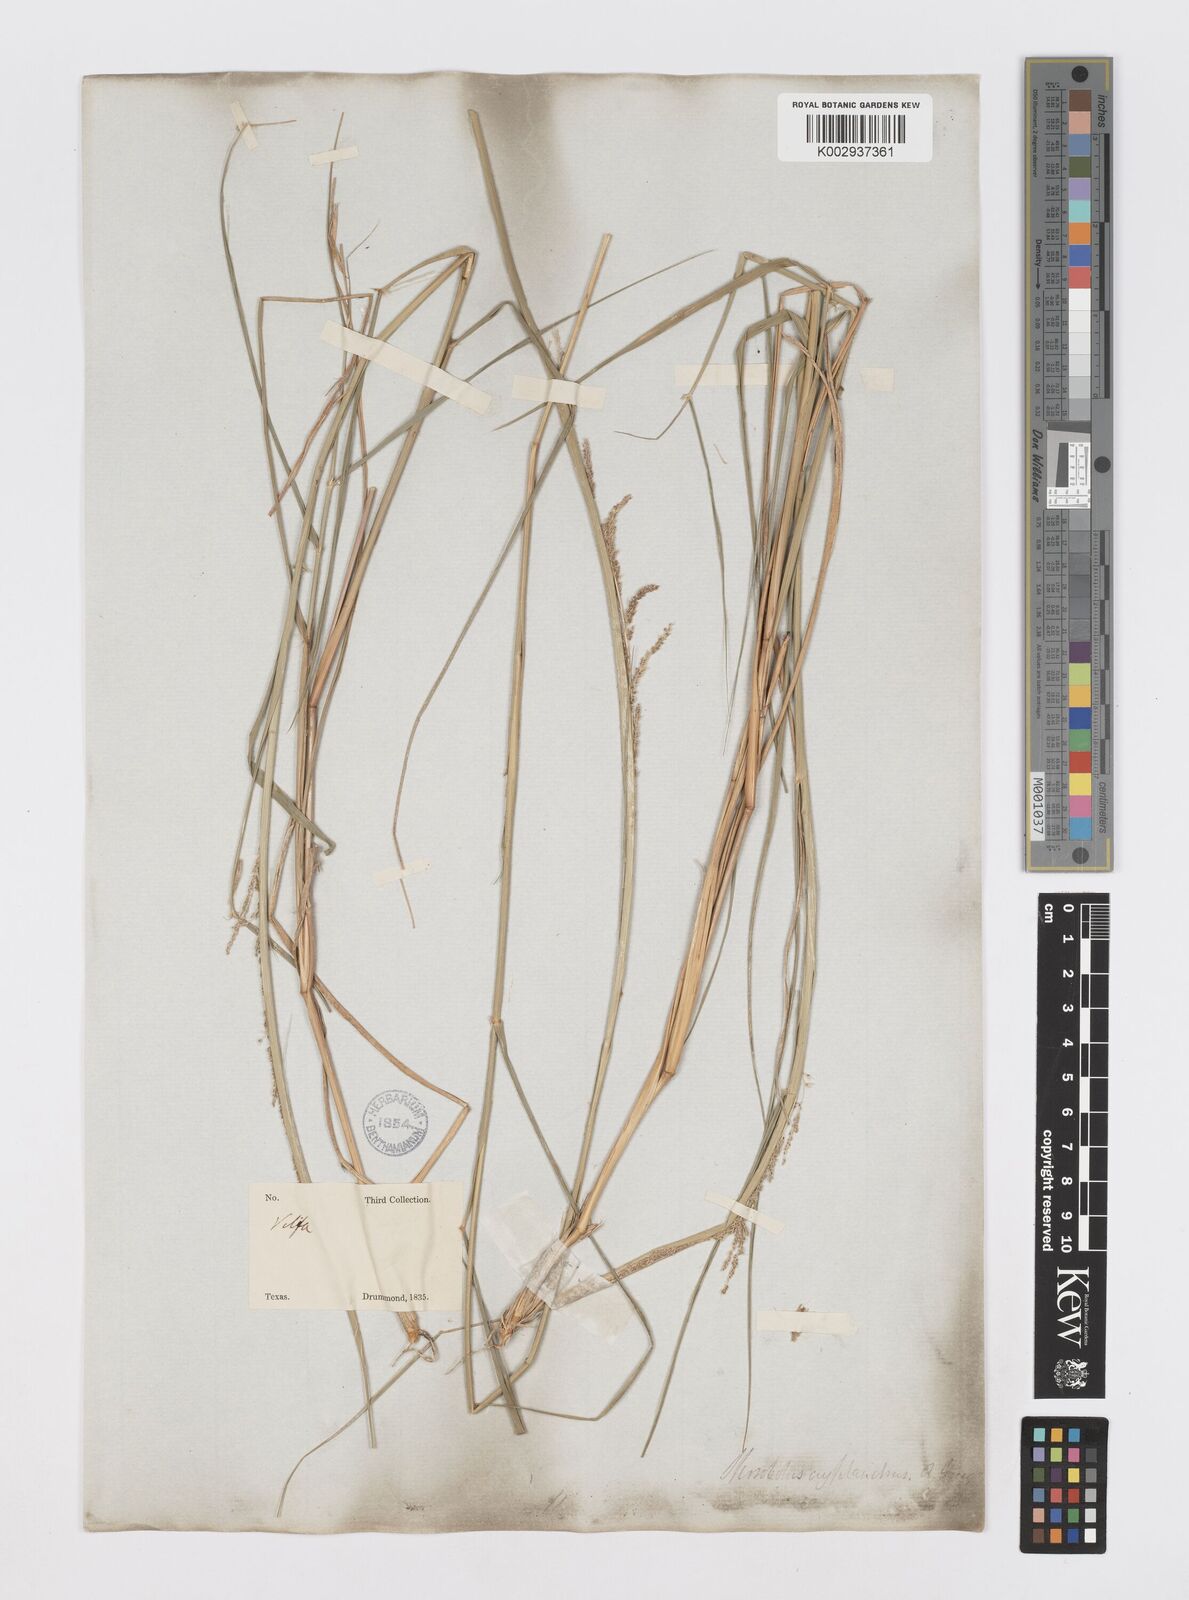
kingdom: Plantae
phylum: Tracheophyta
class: Liliopsida
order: Poales
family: Poaceae
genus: Sporobolus
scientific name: Sporobolus cryptandrus
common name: Sand dropseed
